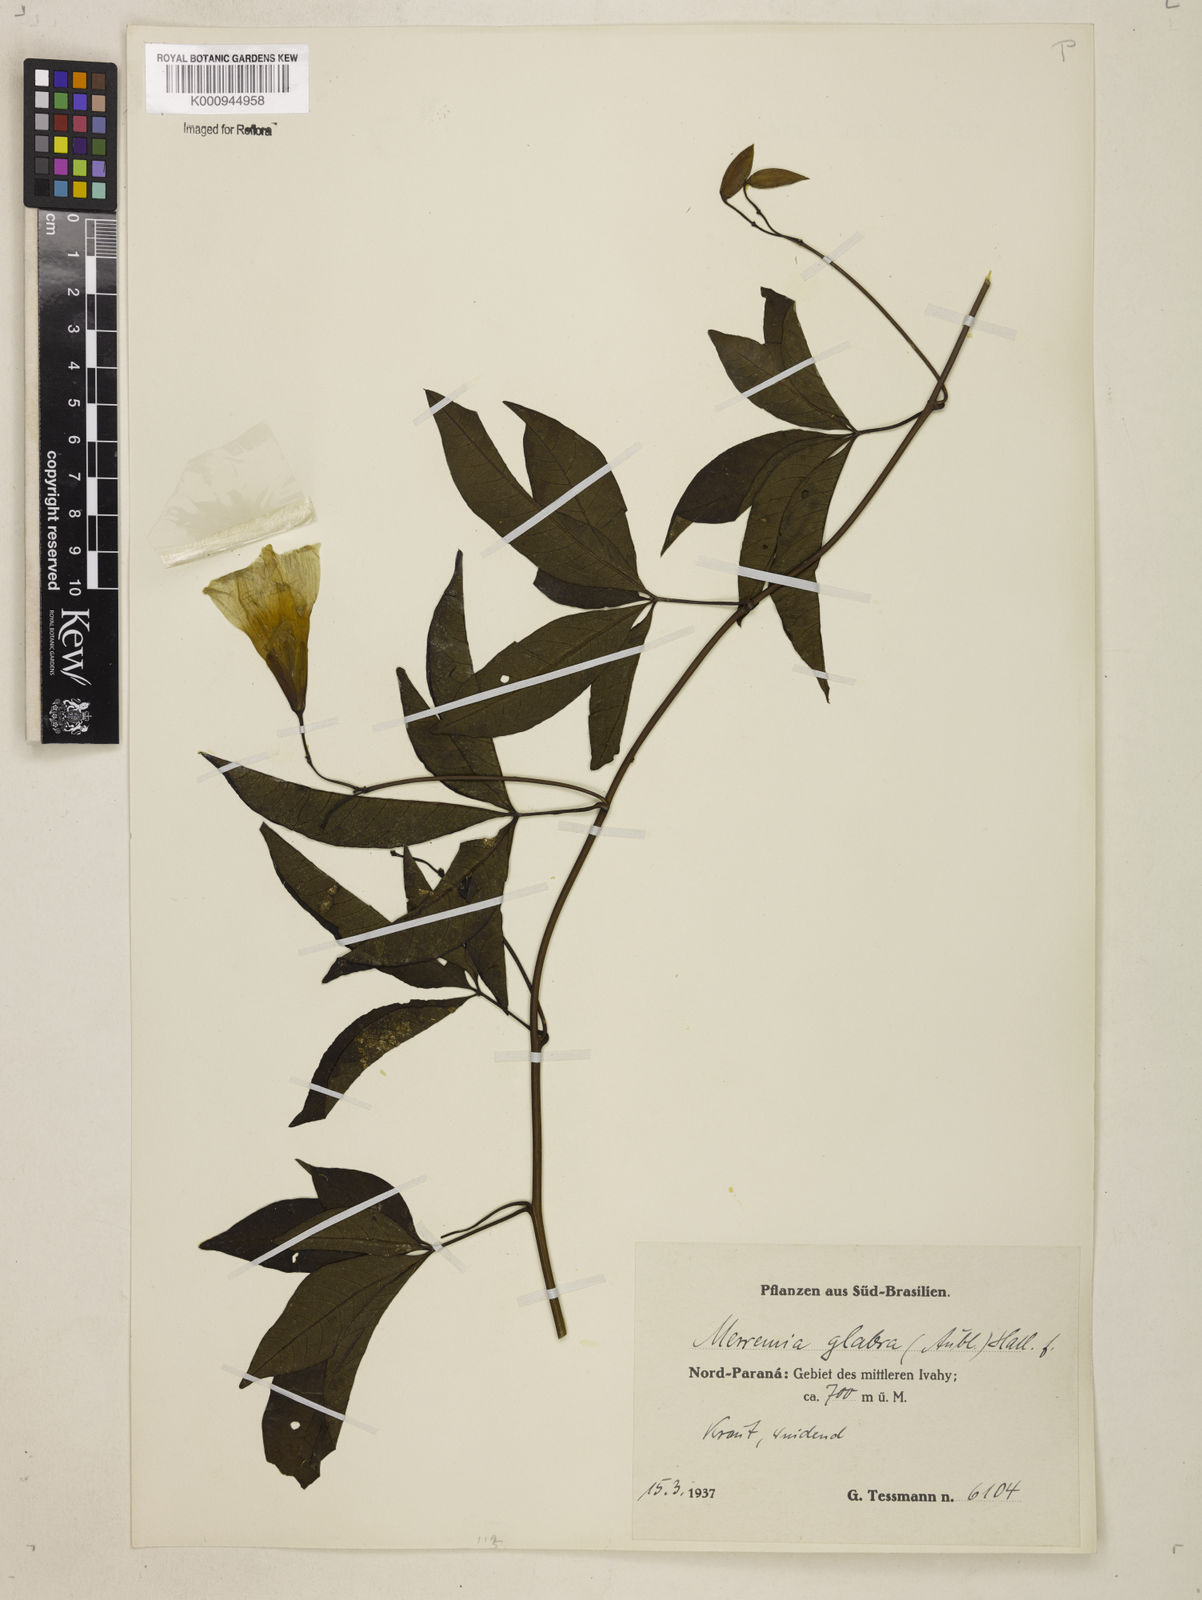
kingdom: Plantae
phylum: Tracheophyta
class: Magnoliopsida
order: Solanales
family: Convolvulaceae
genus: Distimake
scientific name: Distimake macrocalyx
